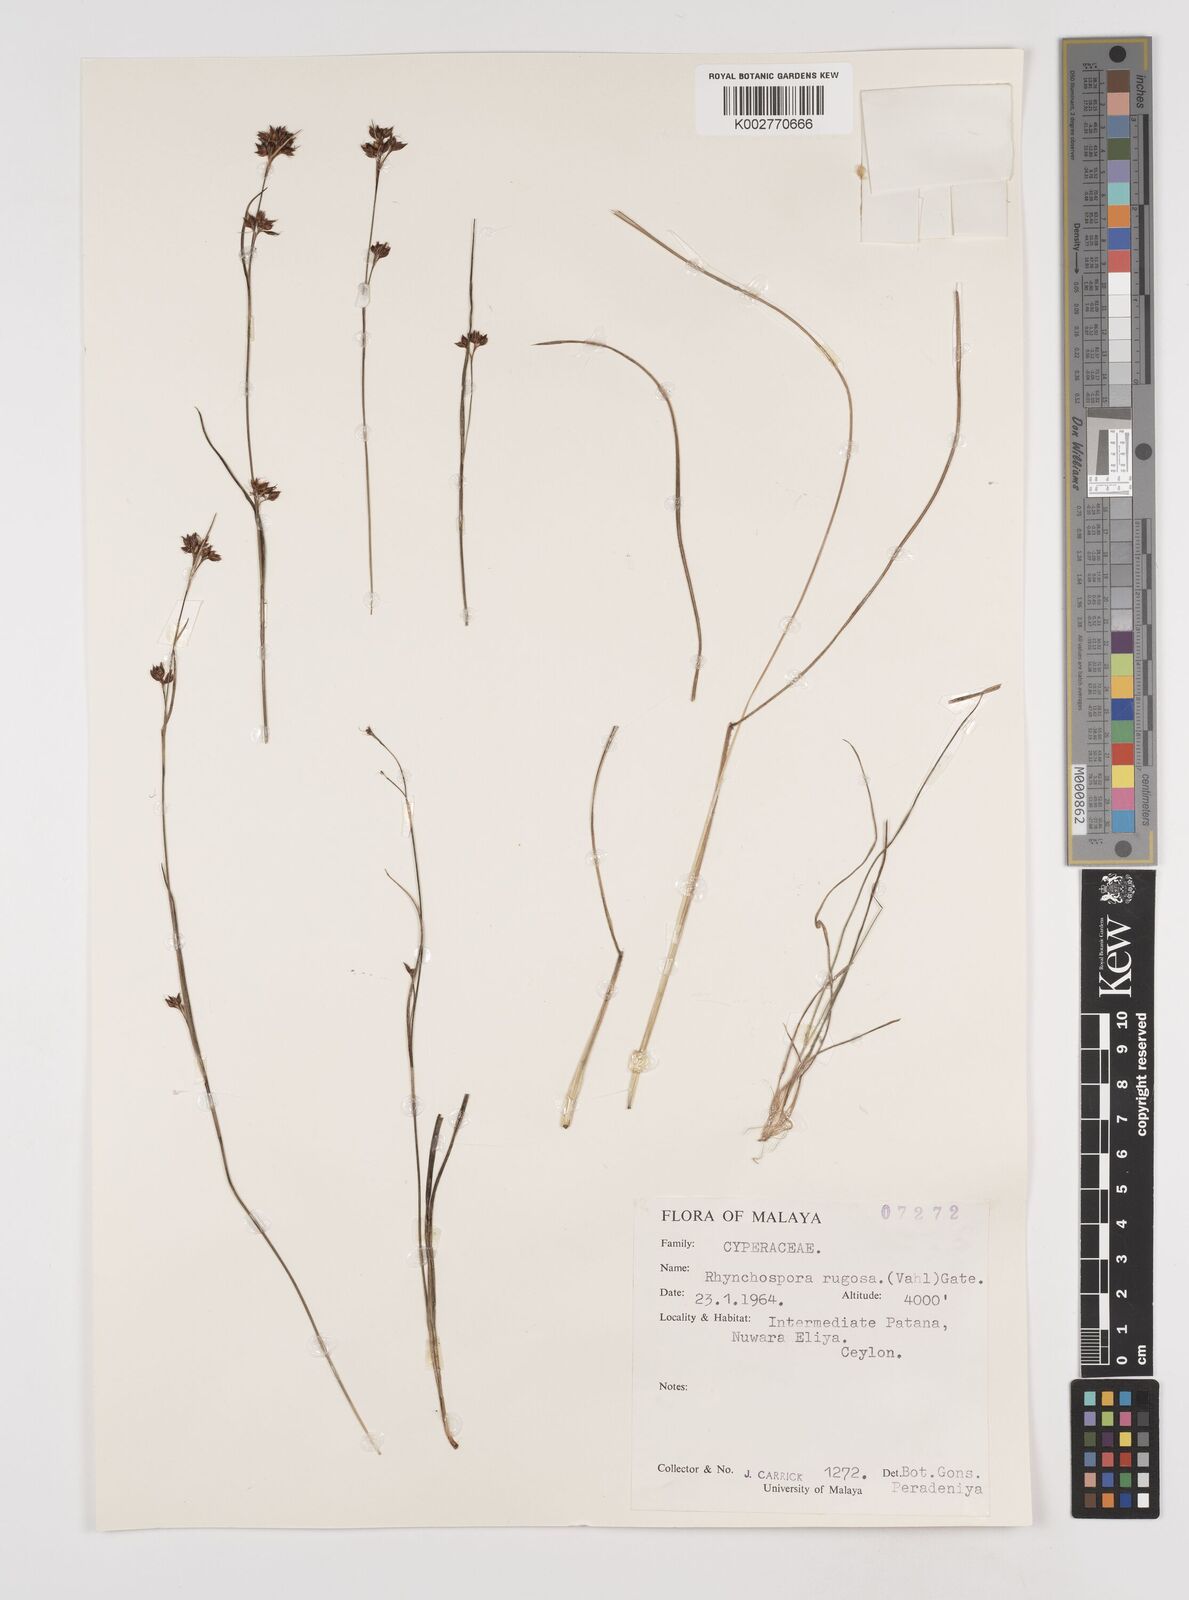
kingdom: Plantae
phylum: Tracheophyta
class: Liliopsida
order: Poales
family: Cyperaceae
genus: Rhynchospora
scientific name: Rhynchospora rugosa
